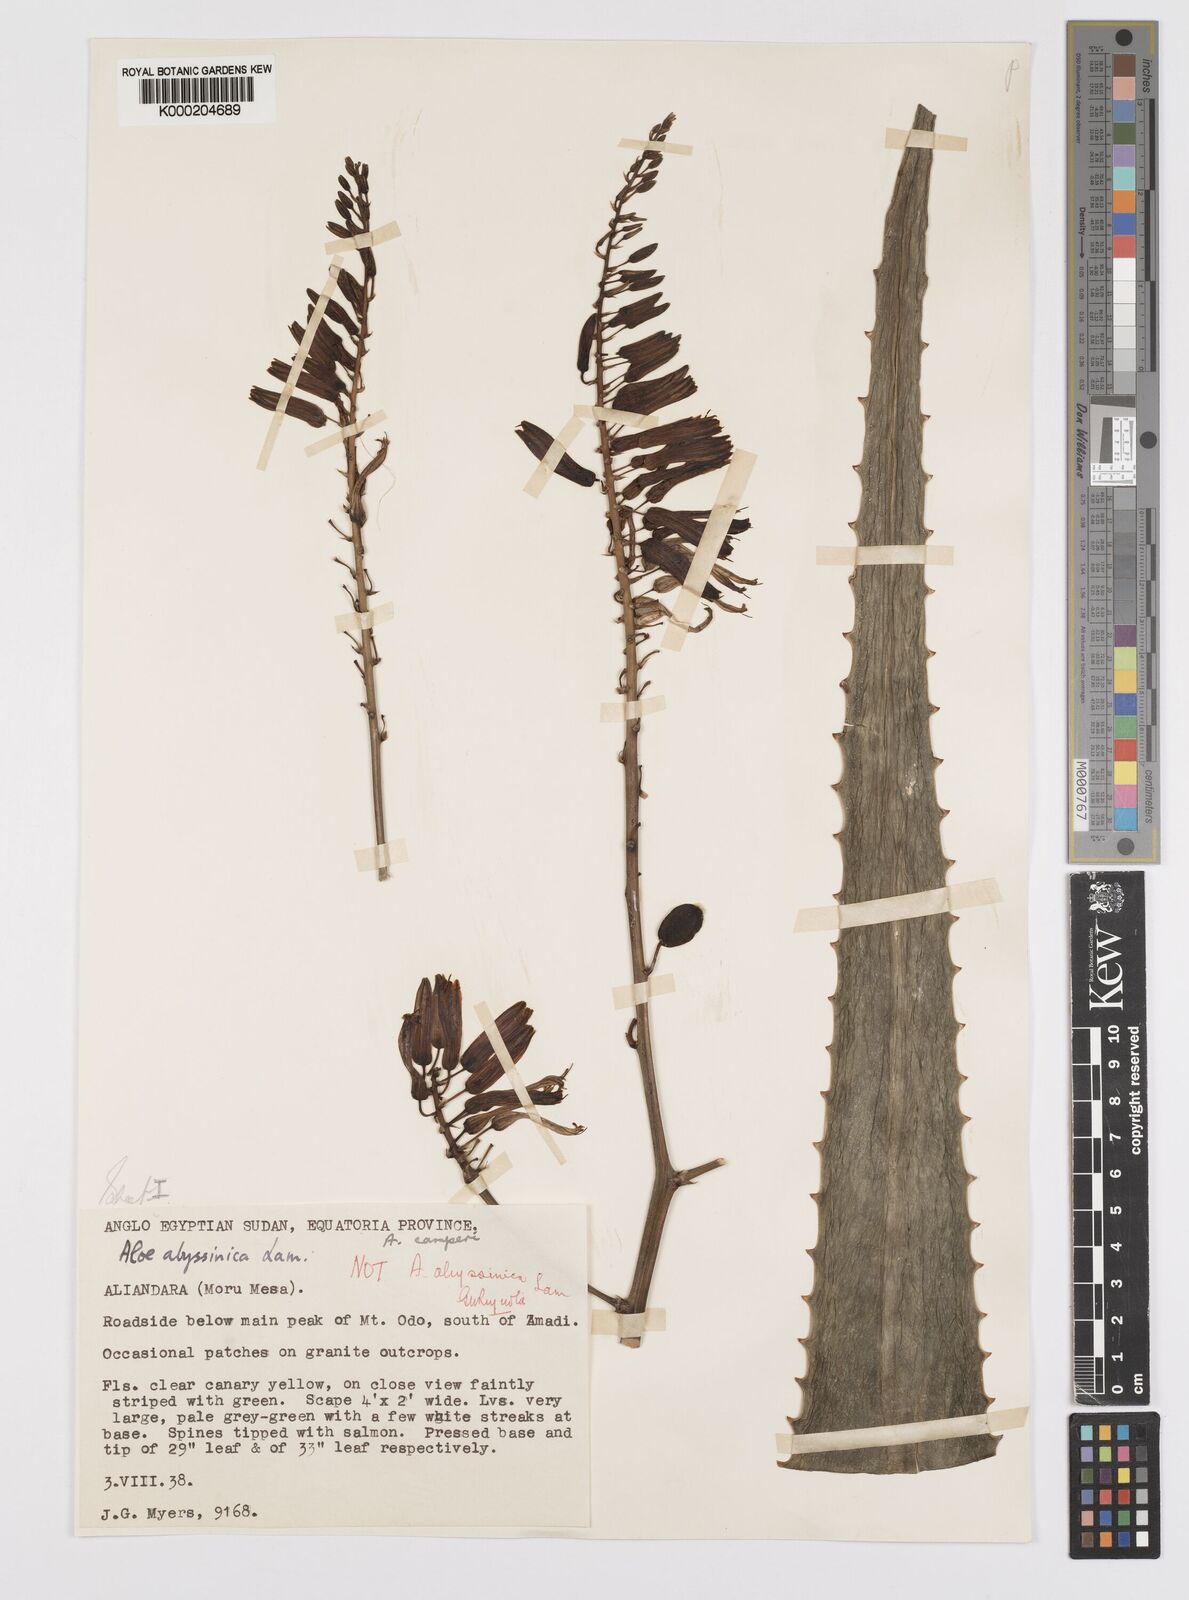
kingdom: Plantae
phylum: Tracheophyta
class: Liliopsida
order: Asparagales
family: Asphodelaceae
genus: Aloe
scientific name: Aloe schweinfurthii
